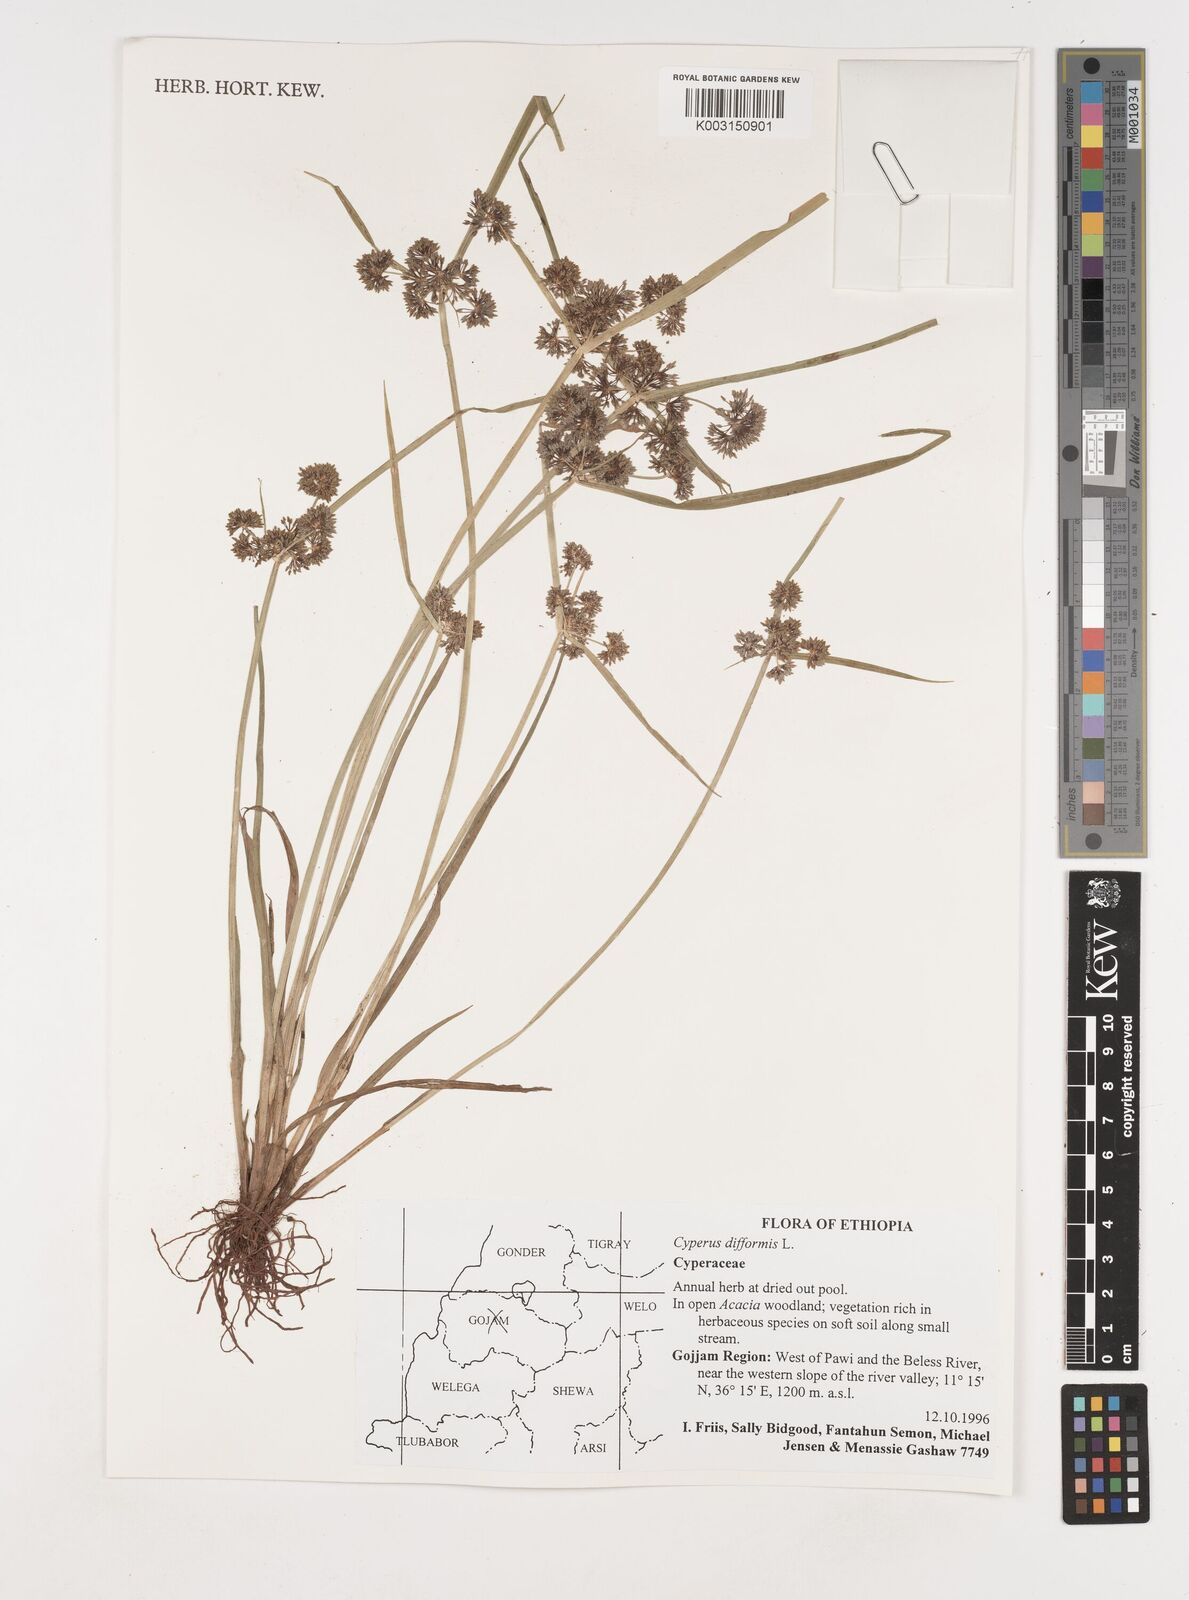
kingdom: Plantae
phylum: Tracheophyta
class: Liliopsida
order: Poales
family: Cyperaceae
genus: Cyperus
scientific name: Cyperus difformis
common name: Variable flatsedge
